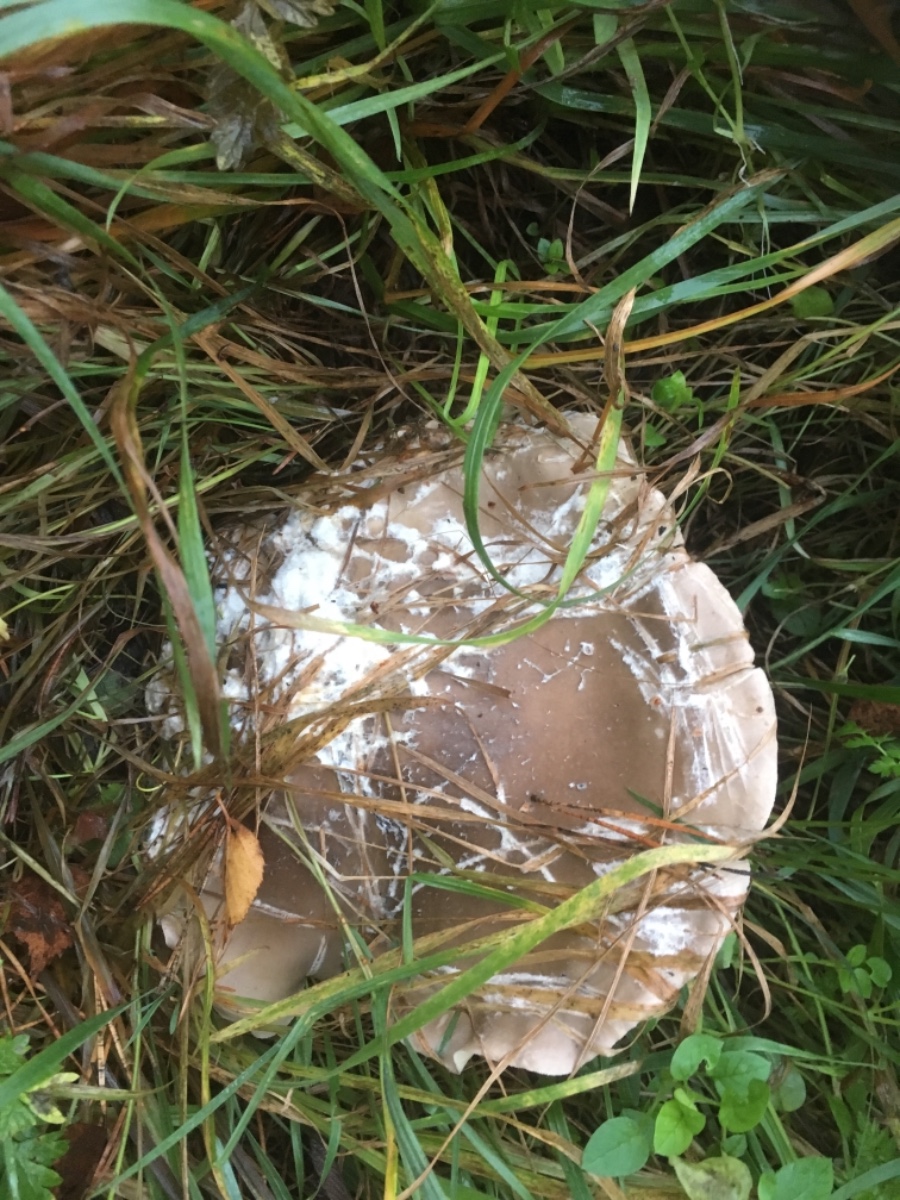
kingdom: Fungi
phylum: Basidiomycota
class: Agaricomycetes
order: Agaricales
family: Tricholomataceae
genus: Clitocybe
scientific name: Clitocybe nebularis
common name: tåge-tragthat
